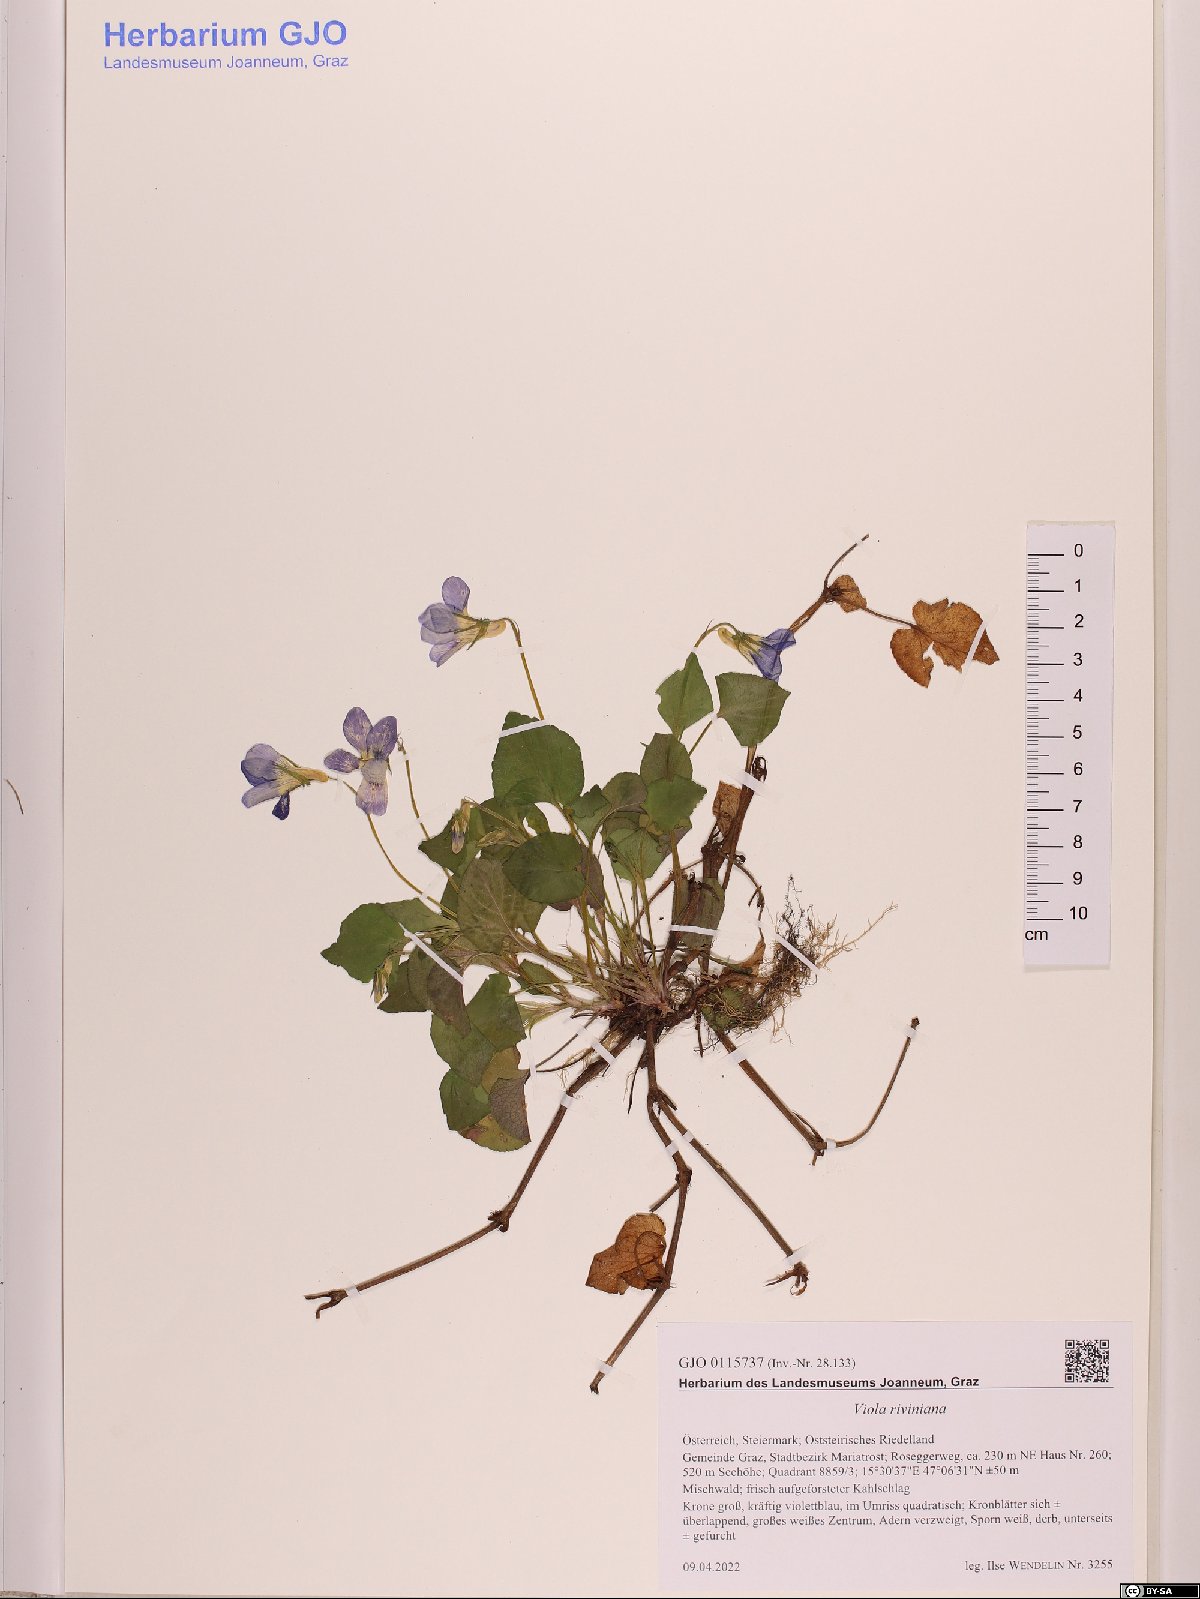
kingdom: Plantae
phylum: Tracheophyta
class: Magnoliopsida
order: Malpighiales
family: Violaceae
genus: Viola
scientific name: Viola riviniana
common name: Common dog-violet
